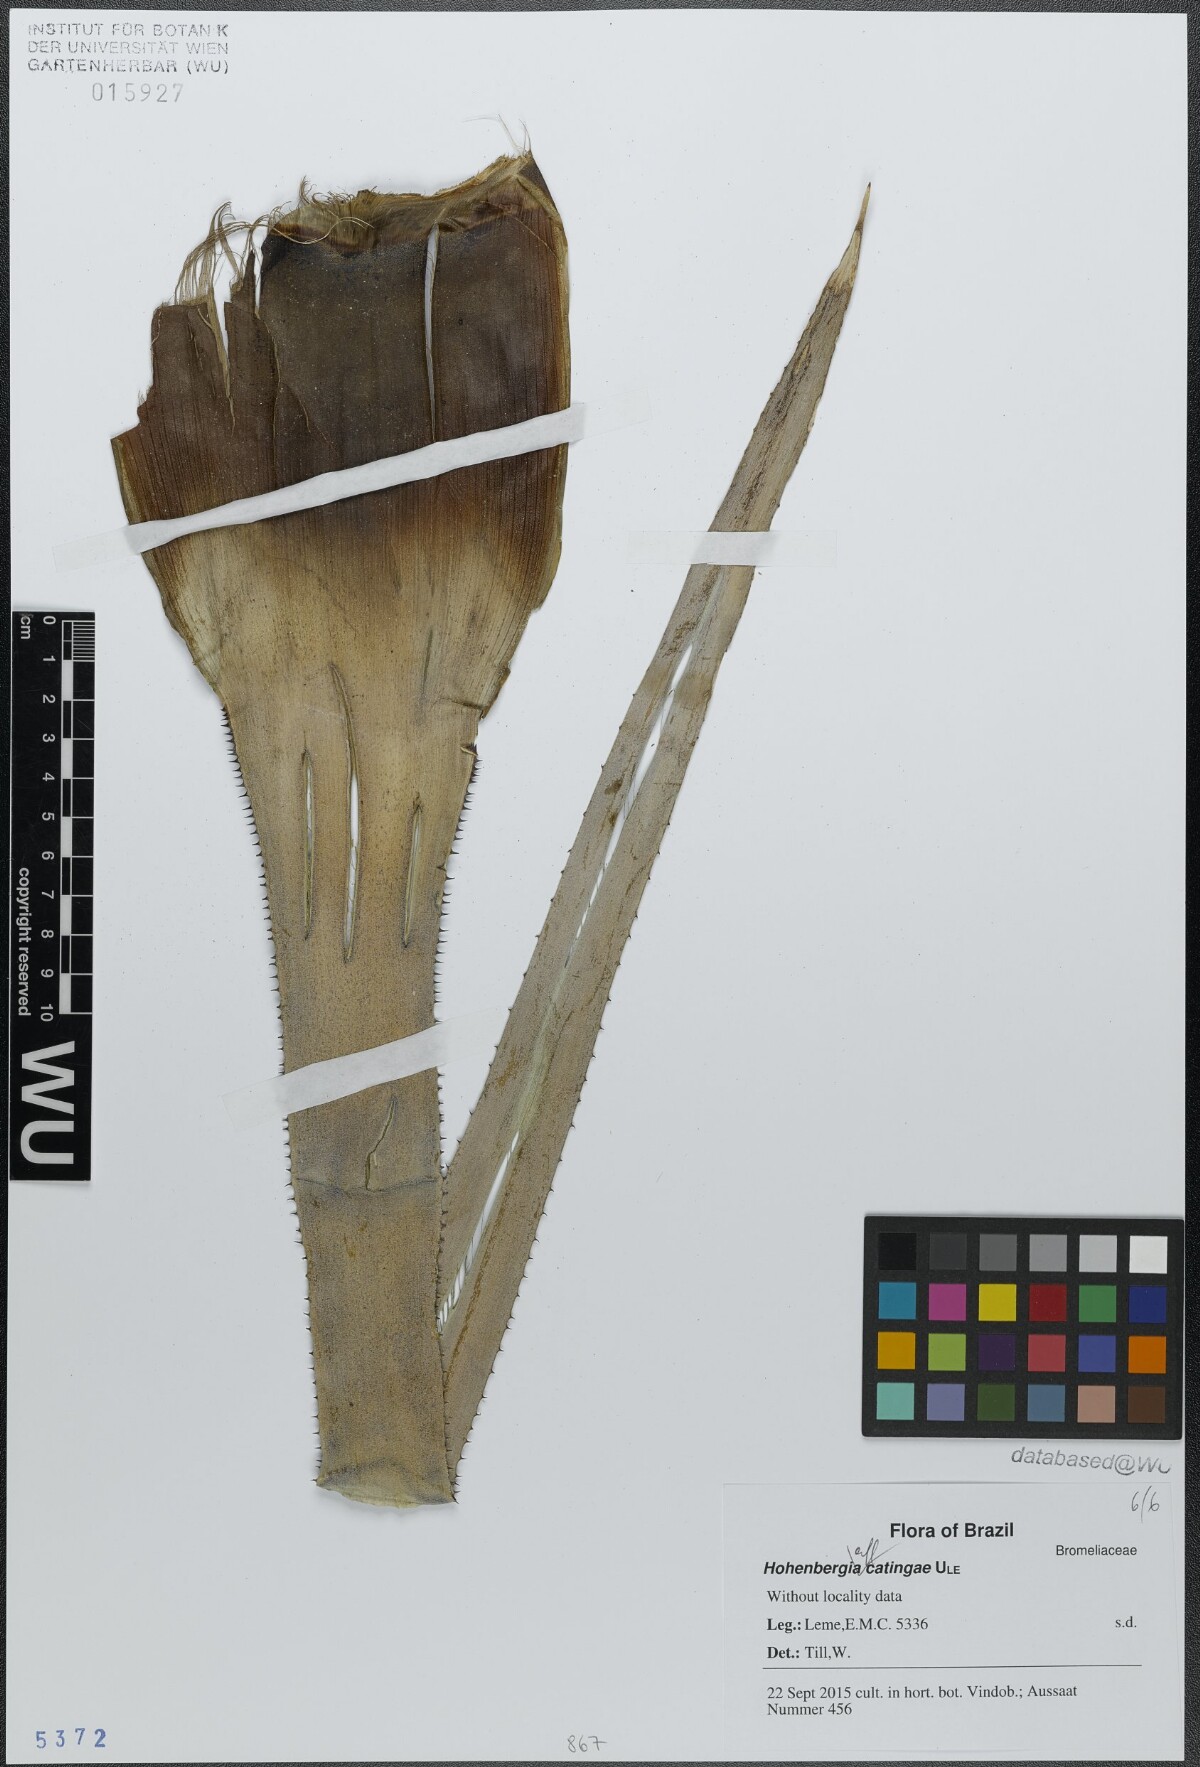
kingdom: Plantae
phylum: Tracheophyta
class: Liliopsida
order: Poales
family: Bromeliaceae
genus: Hohenbergia
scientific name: Hohenbergia catingae
